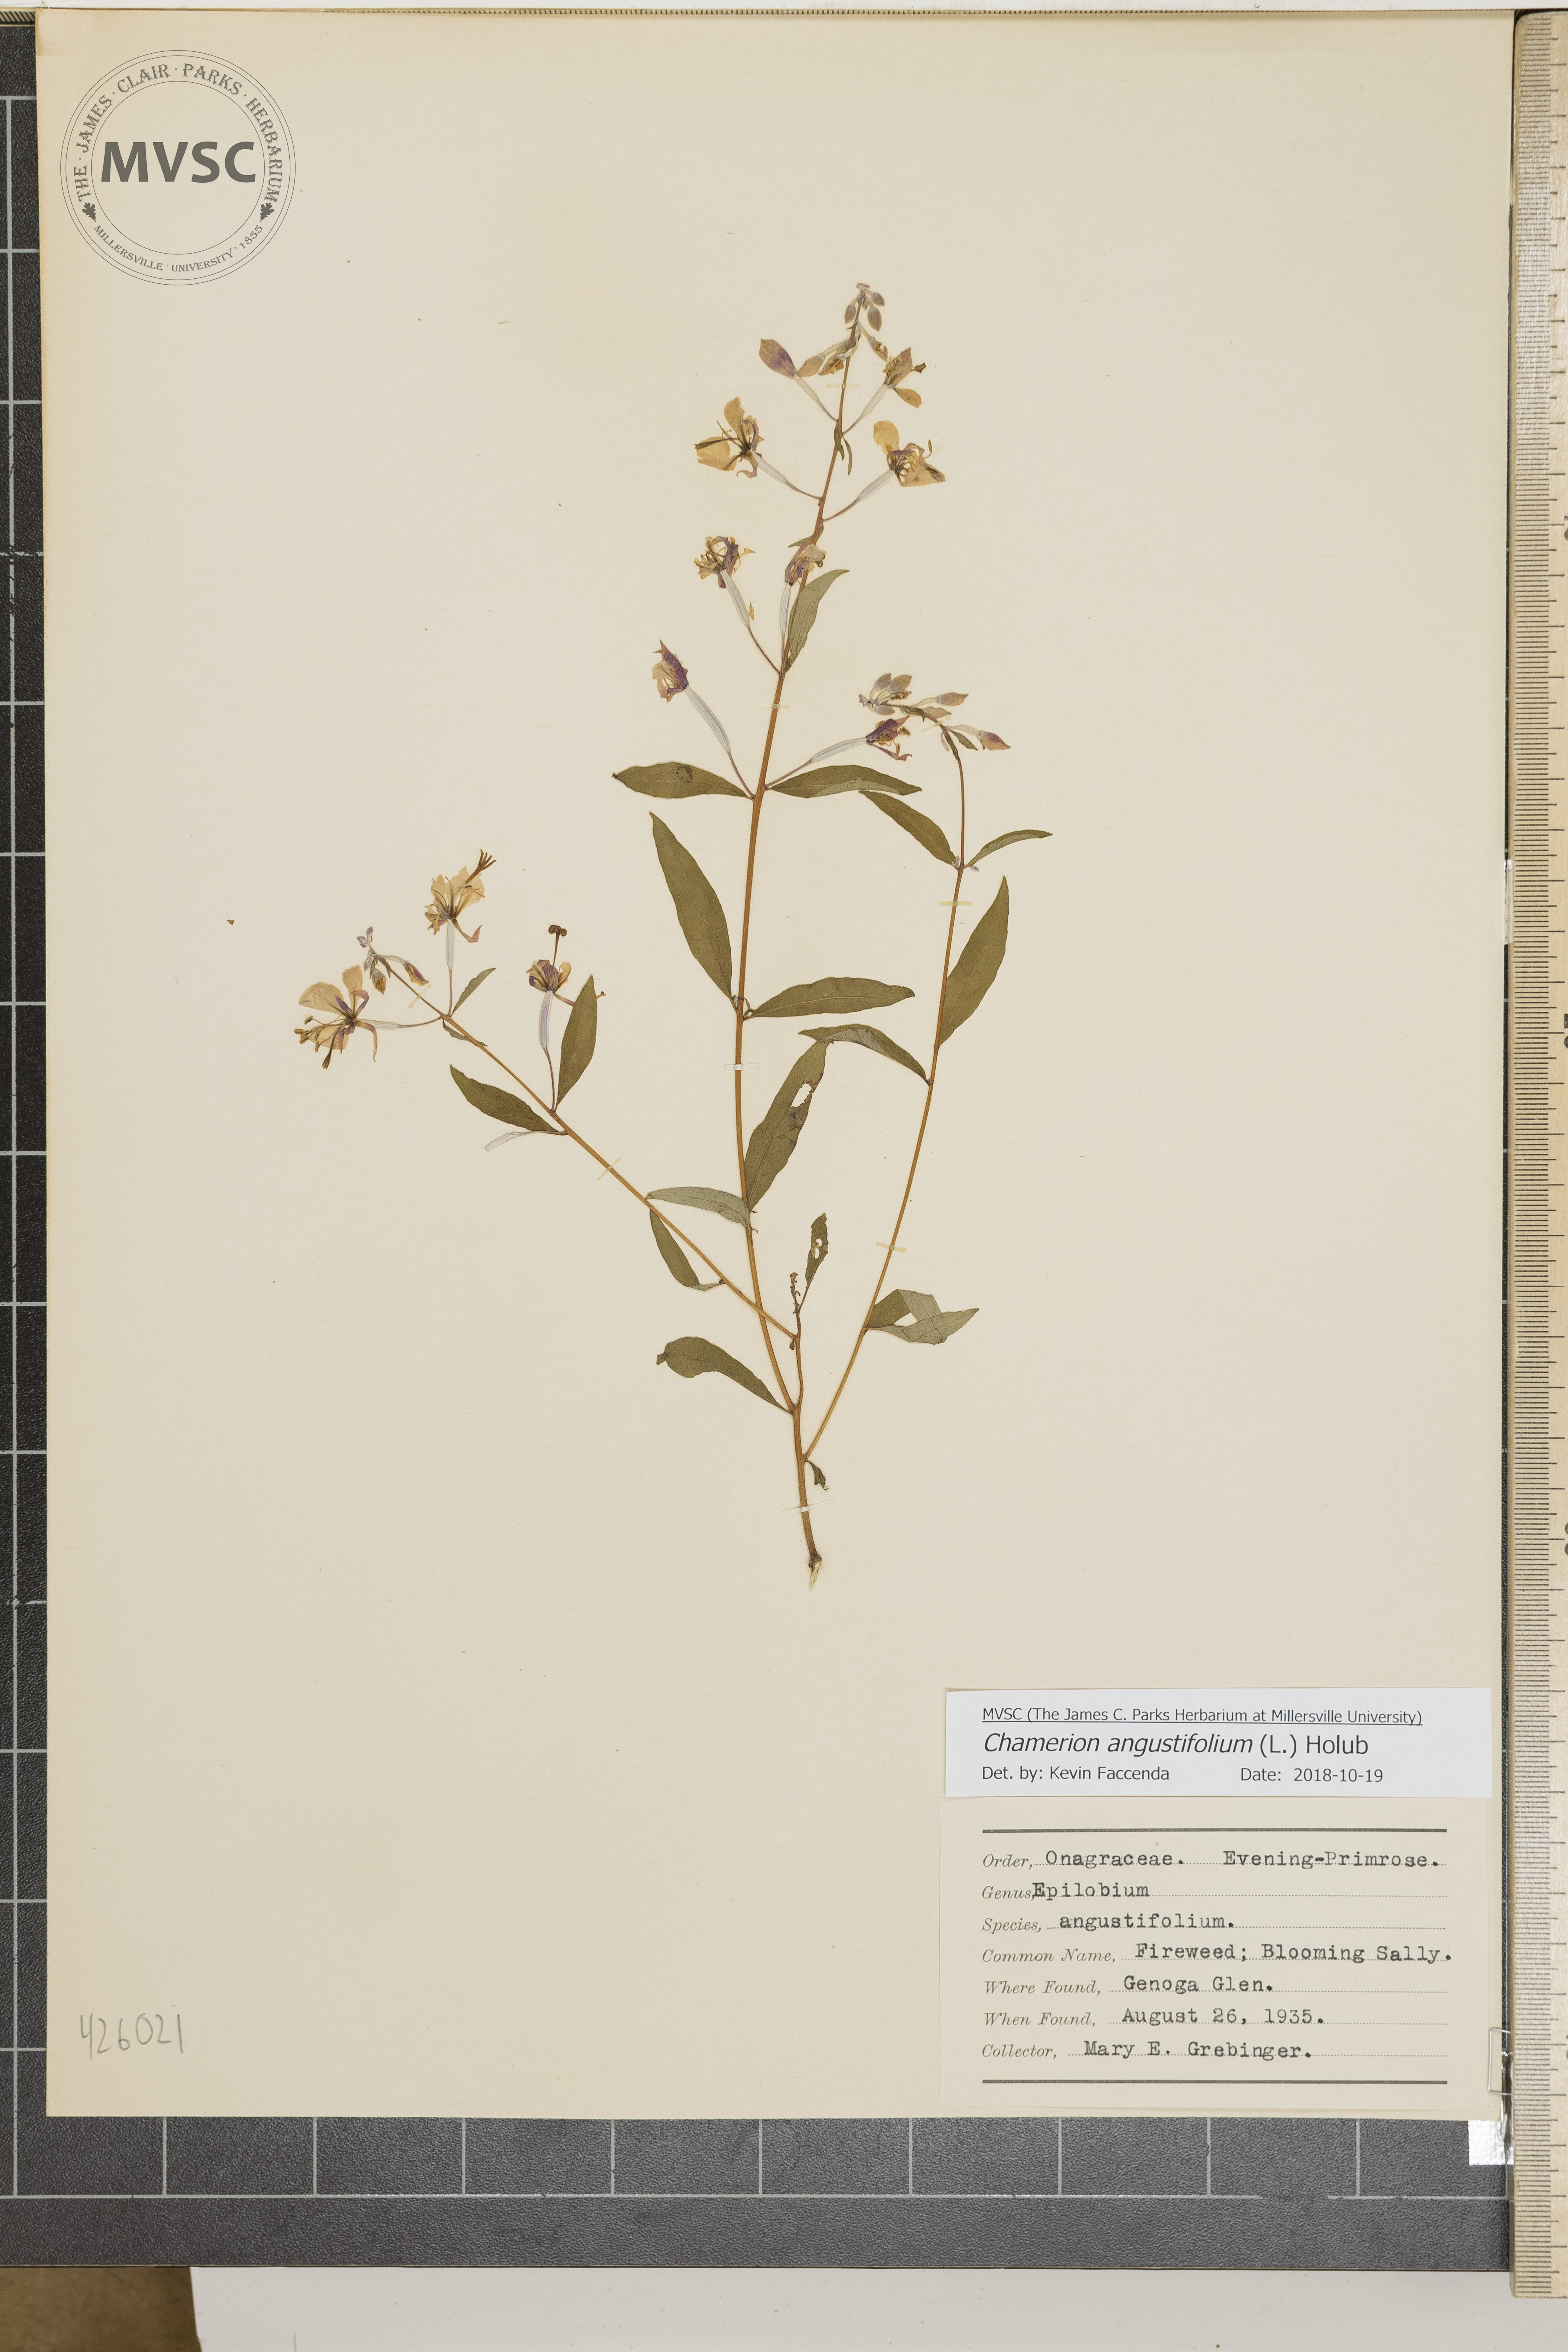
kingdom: Plantae
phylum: Tracheophyta
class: Magnoliopsida
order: Myrtales
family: Onagraceae
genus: Chamaenerion
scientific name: Chamaenerion angustifolium
